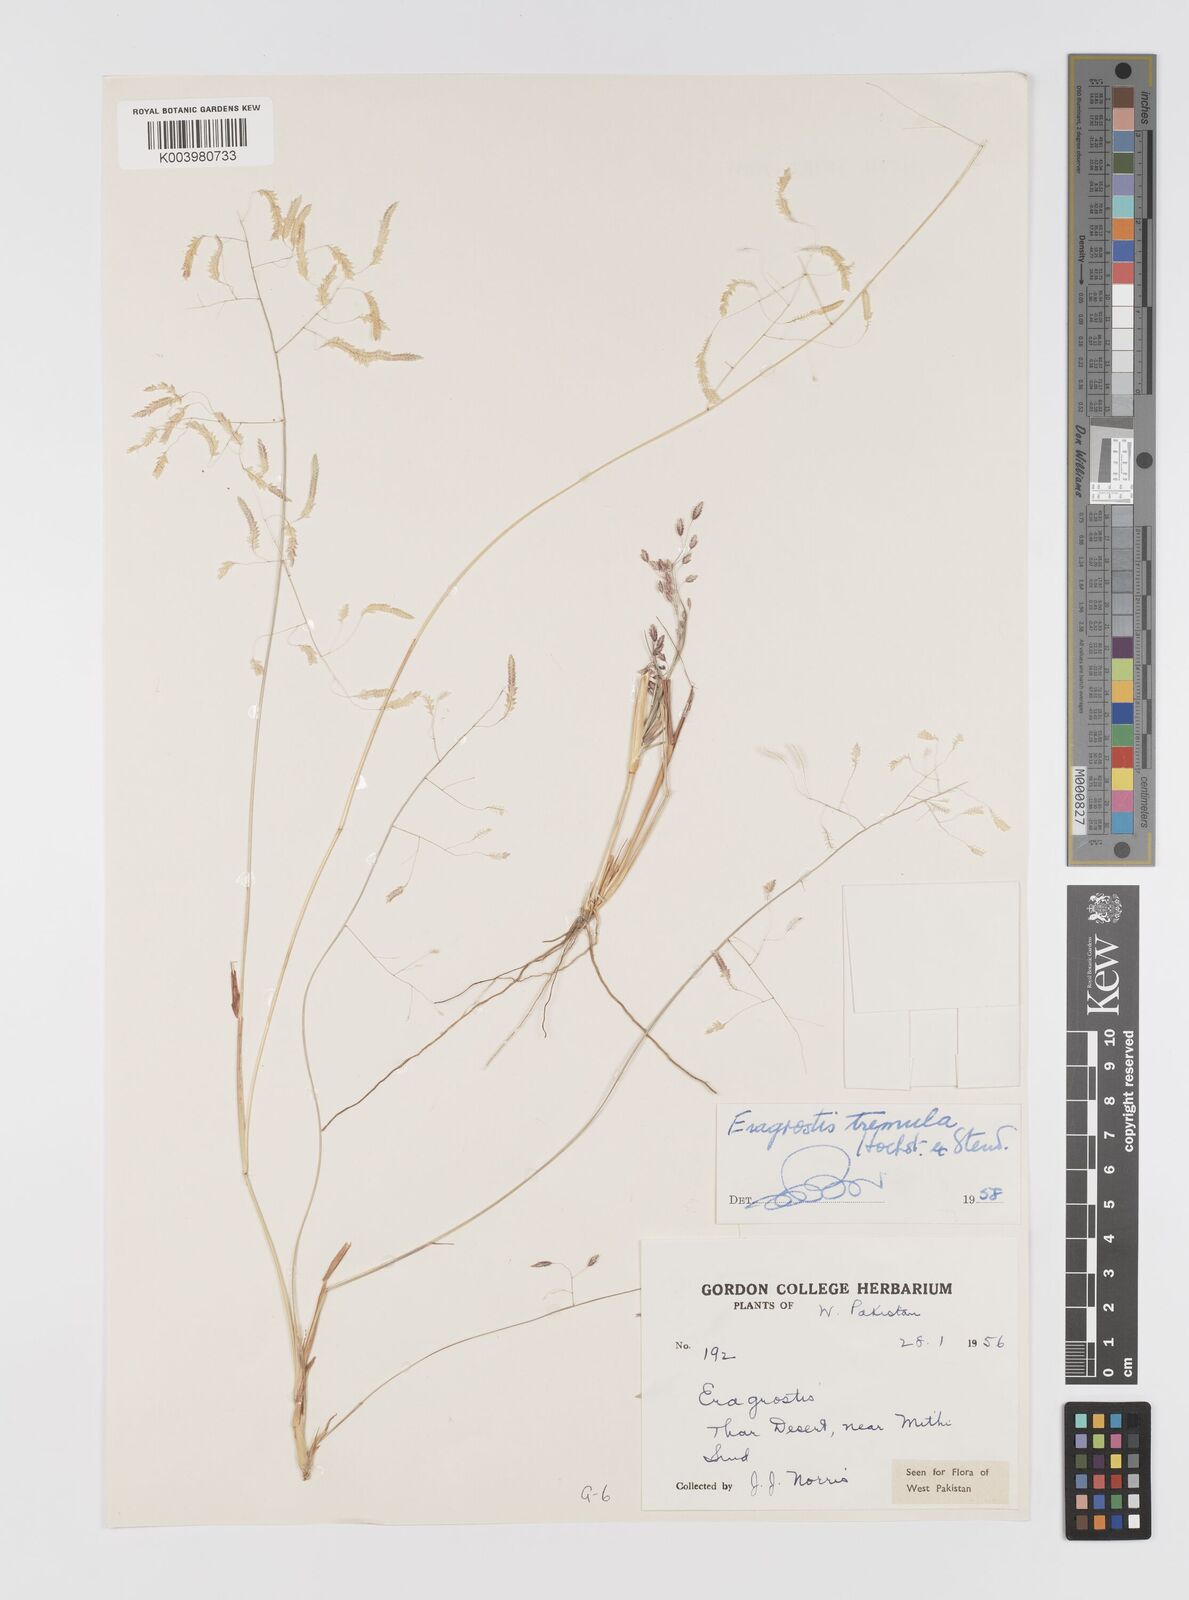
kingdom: Plantae
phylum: Tracheophyta
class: Liliopsida
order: Poales
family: Poaceae
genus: Eragrostis
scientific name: Eragrostis tremula
